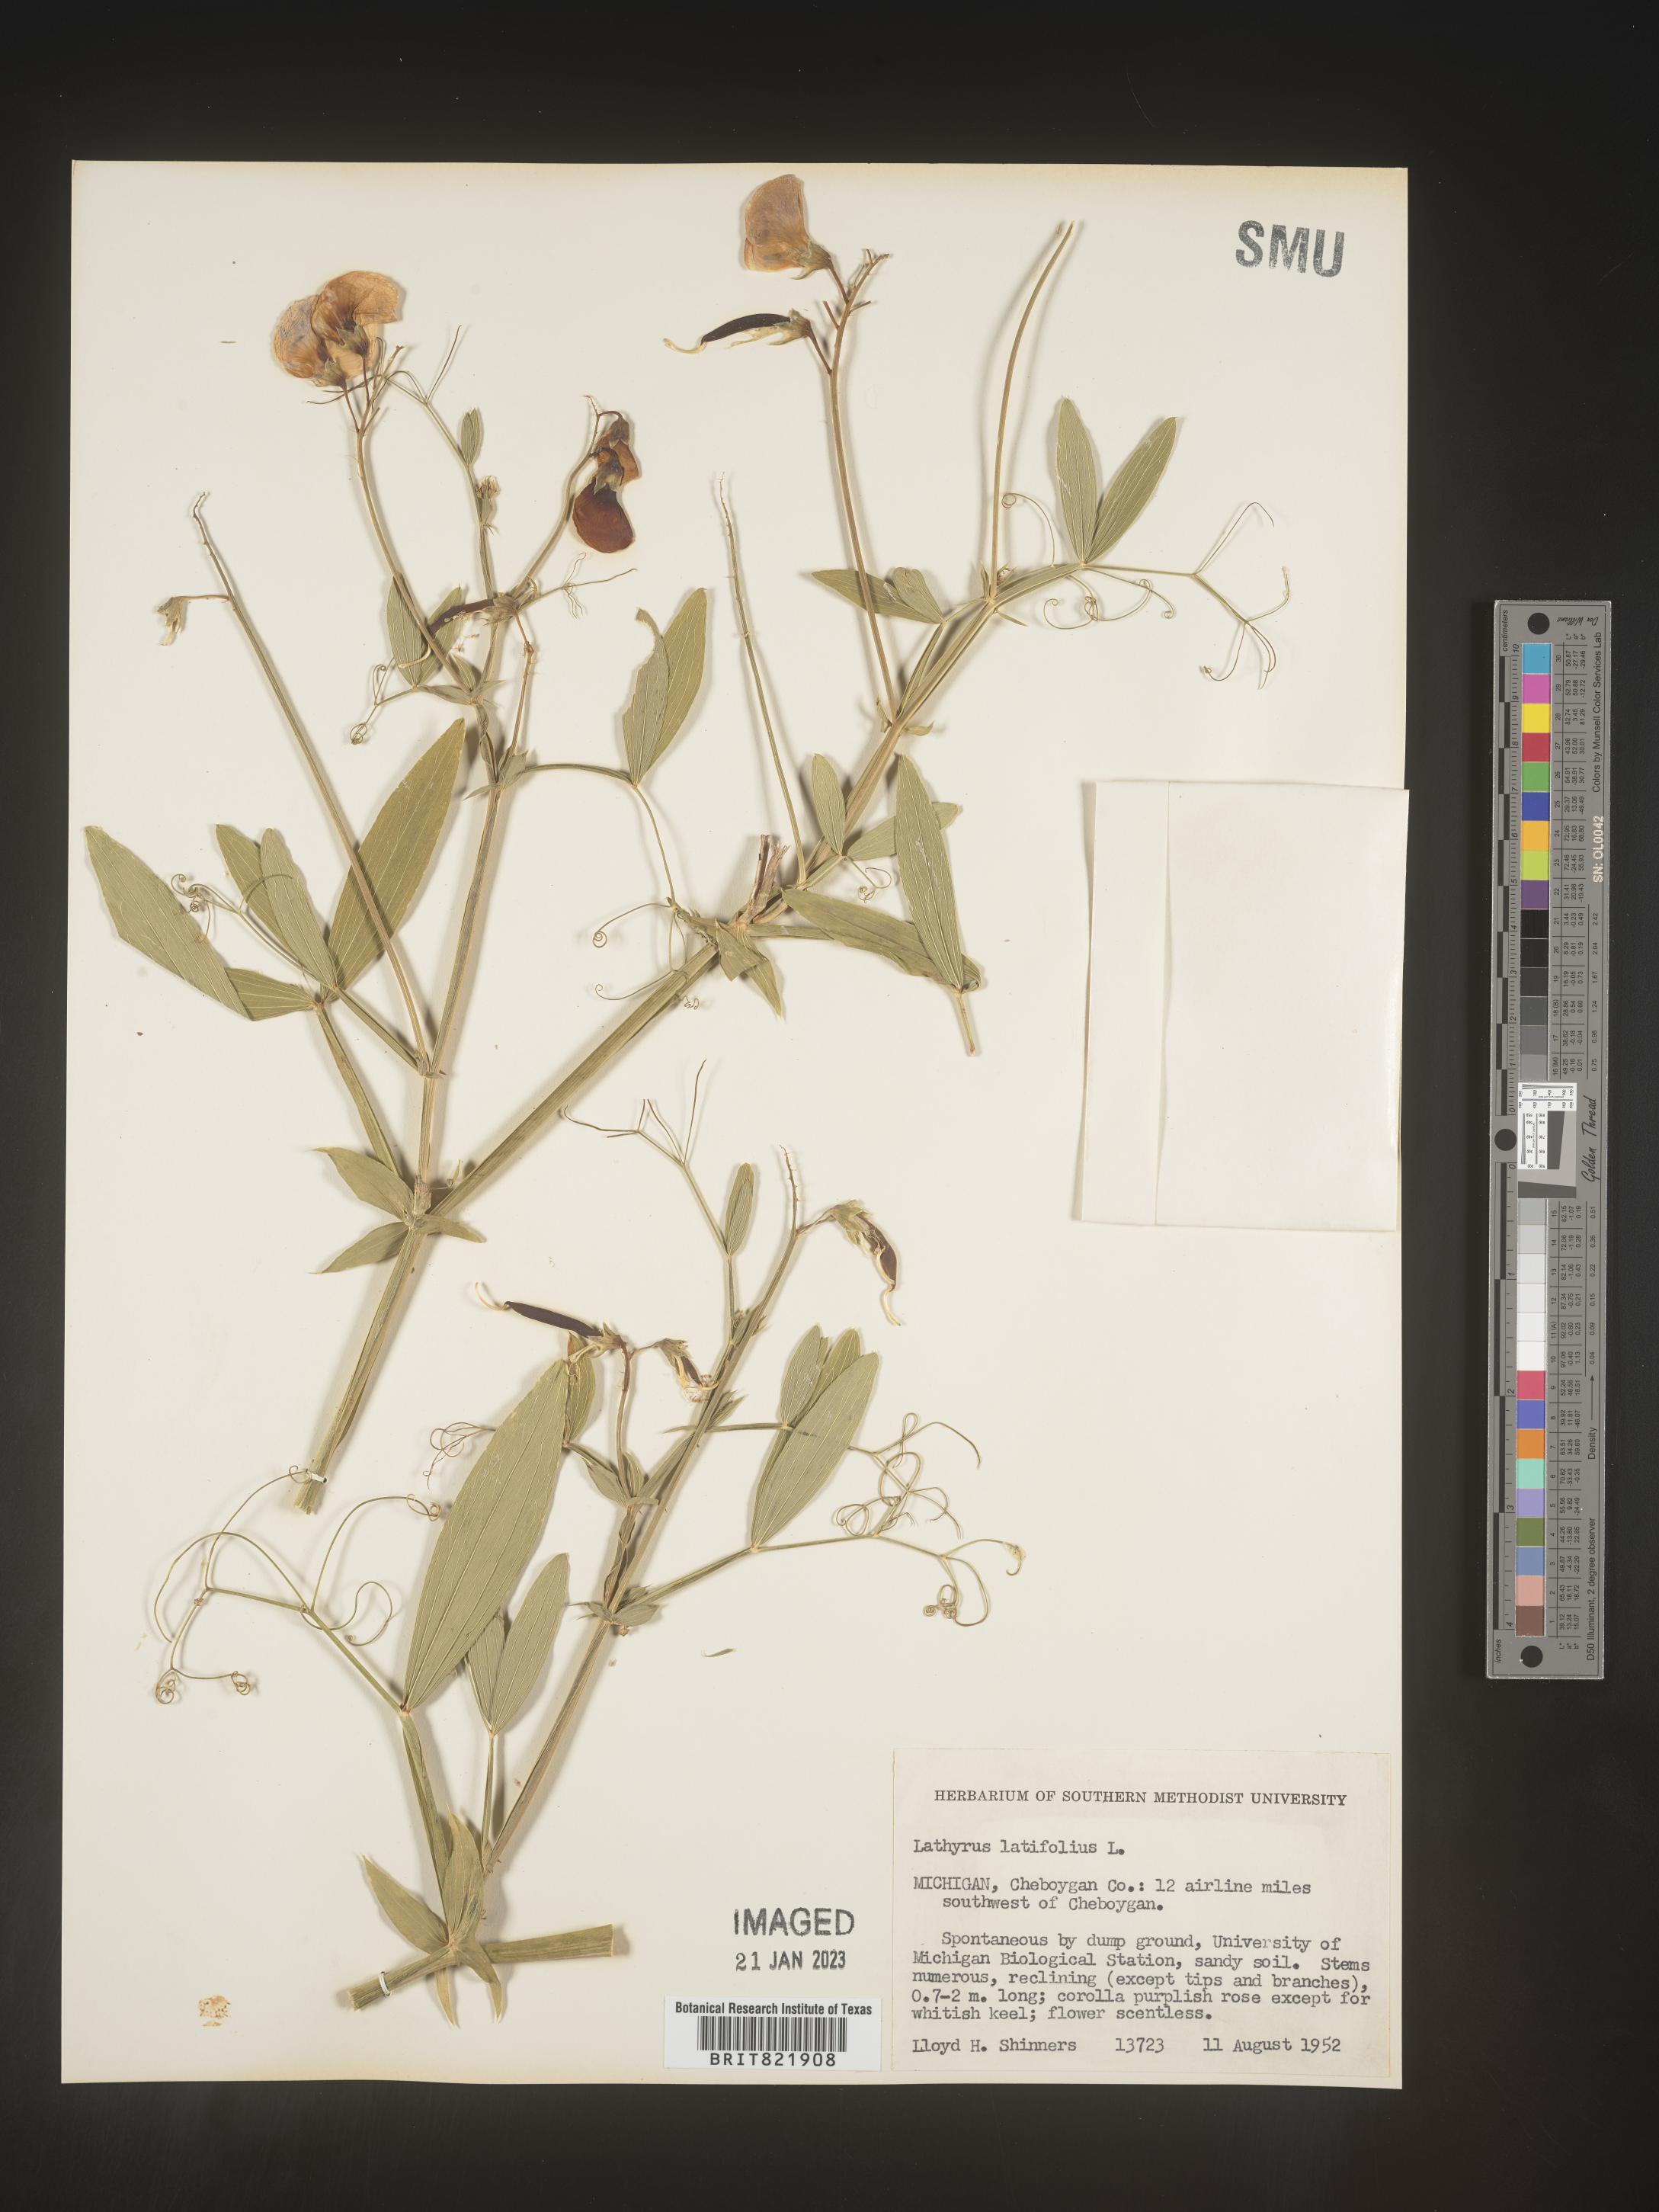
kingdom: Plantae
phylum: Tracheophyta
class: Magnoliopsida
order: Fabales
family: Fabaceae
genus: Lathyrus
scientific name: Lathyrus latifolius
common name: Perennial pea
